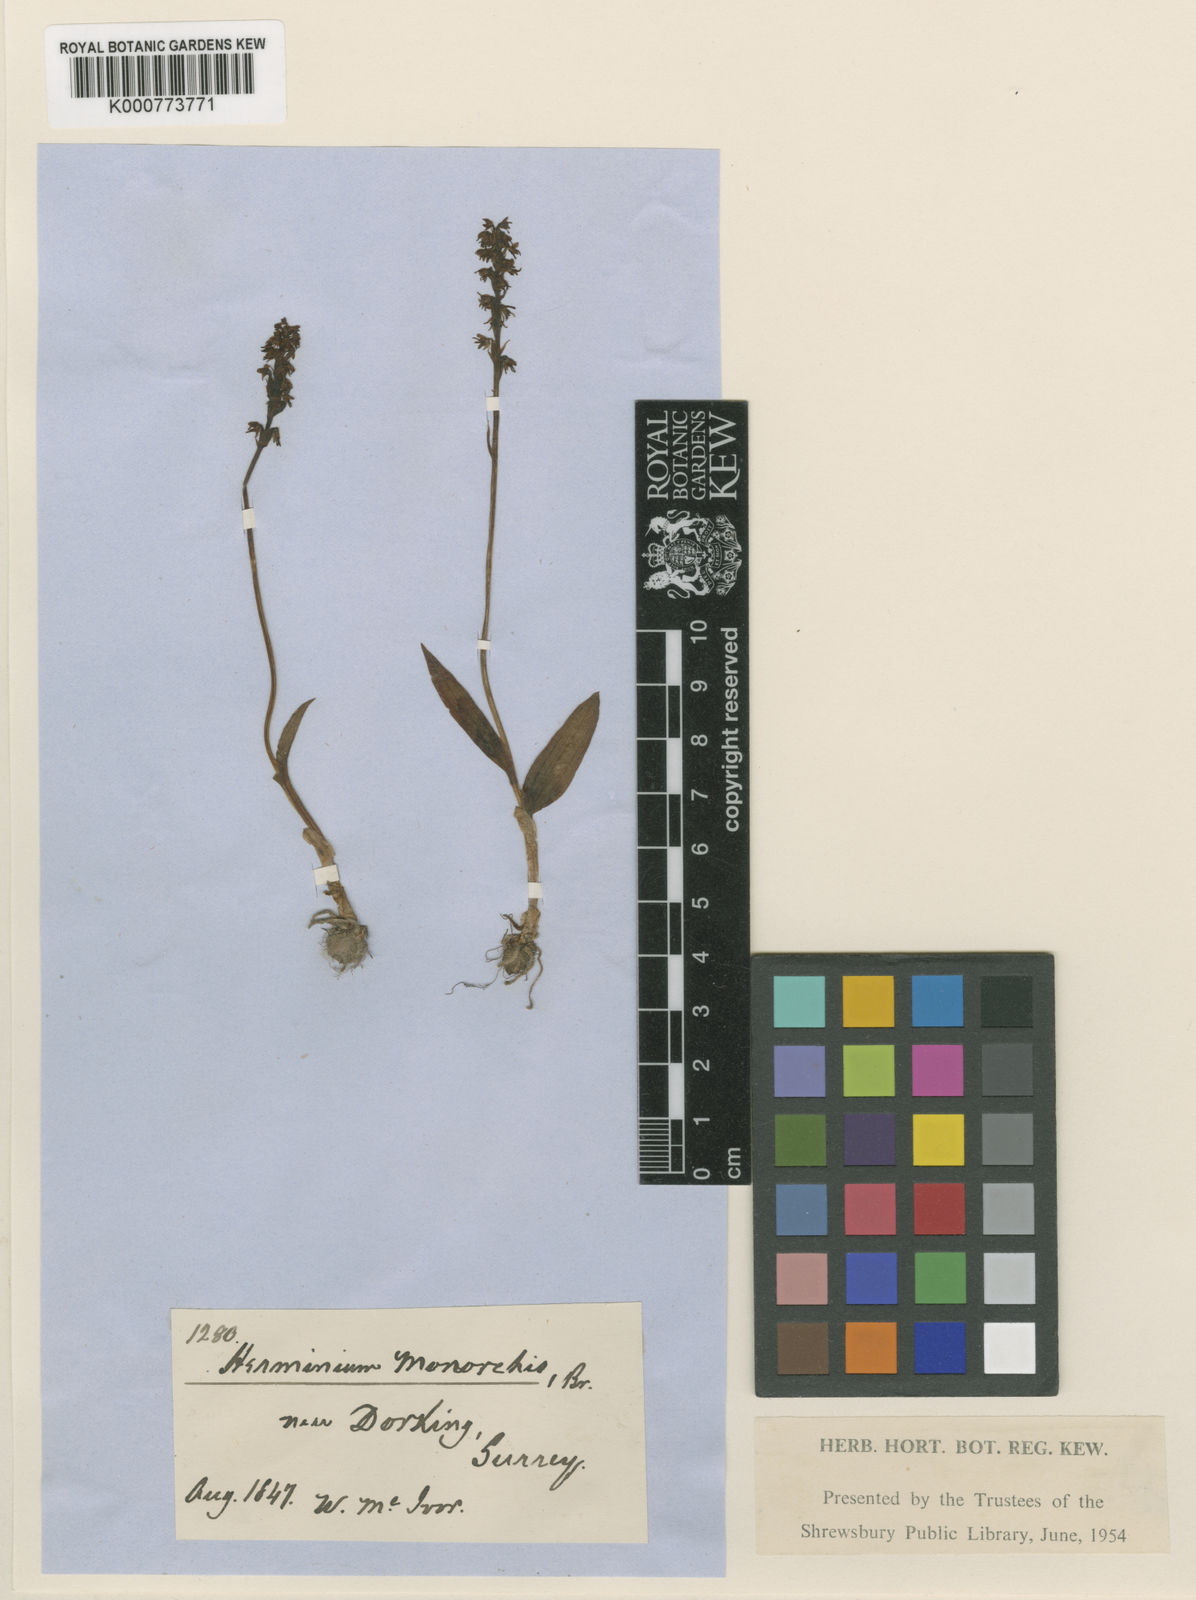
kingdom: Plantae
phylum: Tracheophyta
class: Liliopsida
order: Asparagales
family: Orchidaceae
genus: Herminium
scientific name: Herminium monorchis
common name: Musk orchid
